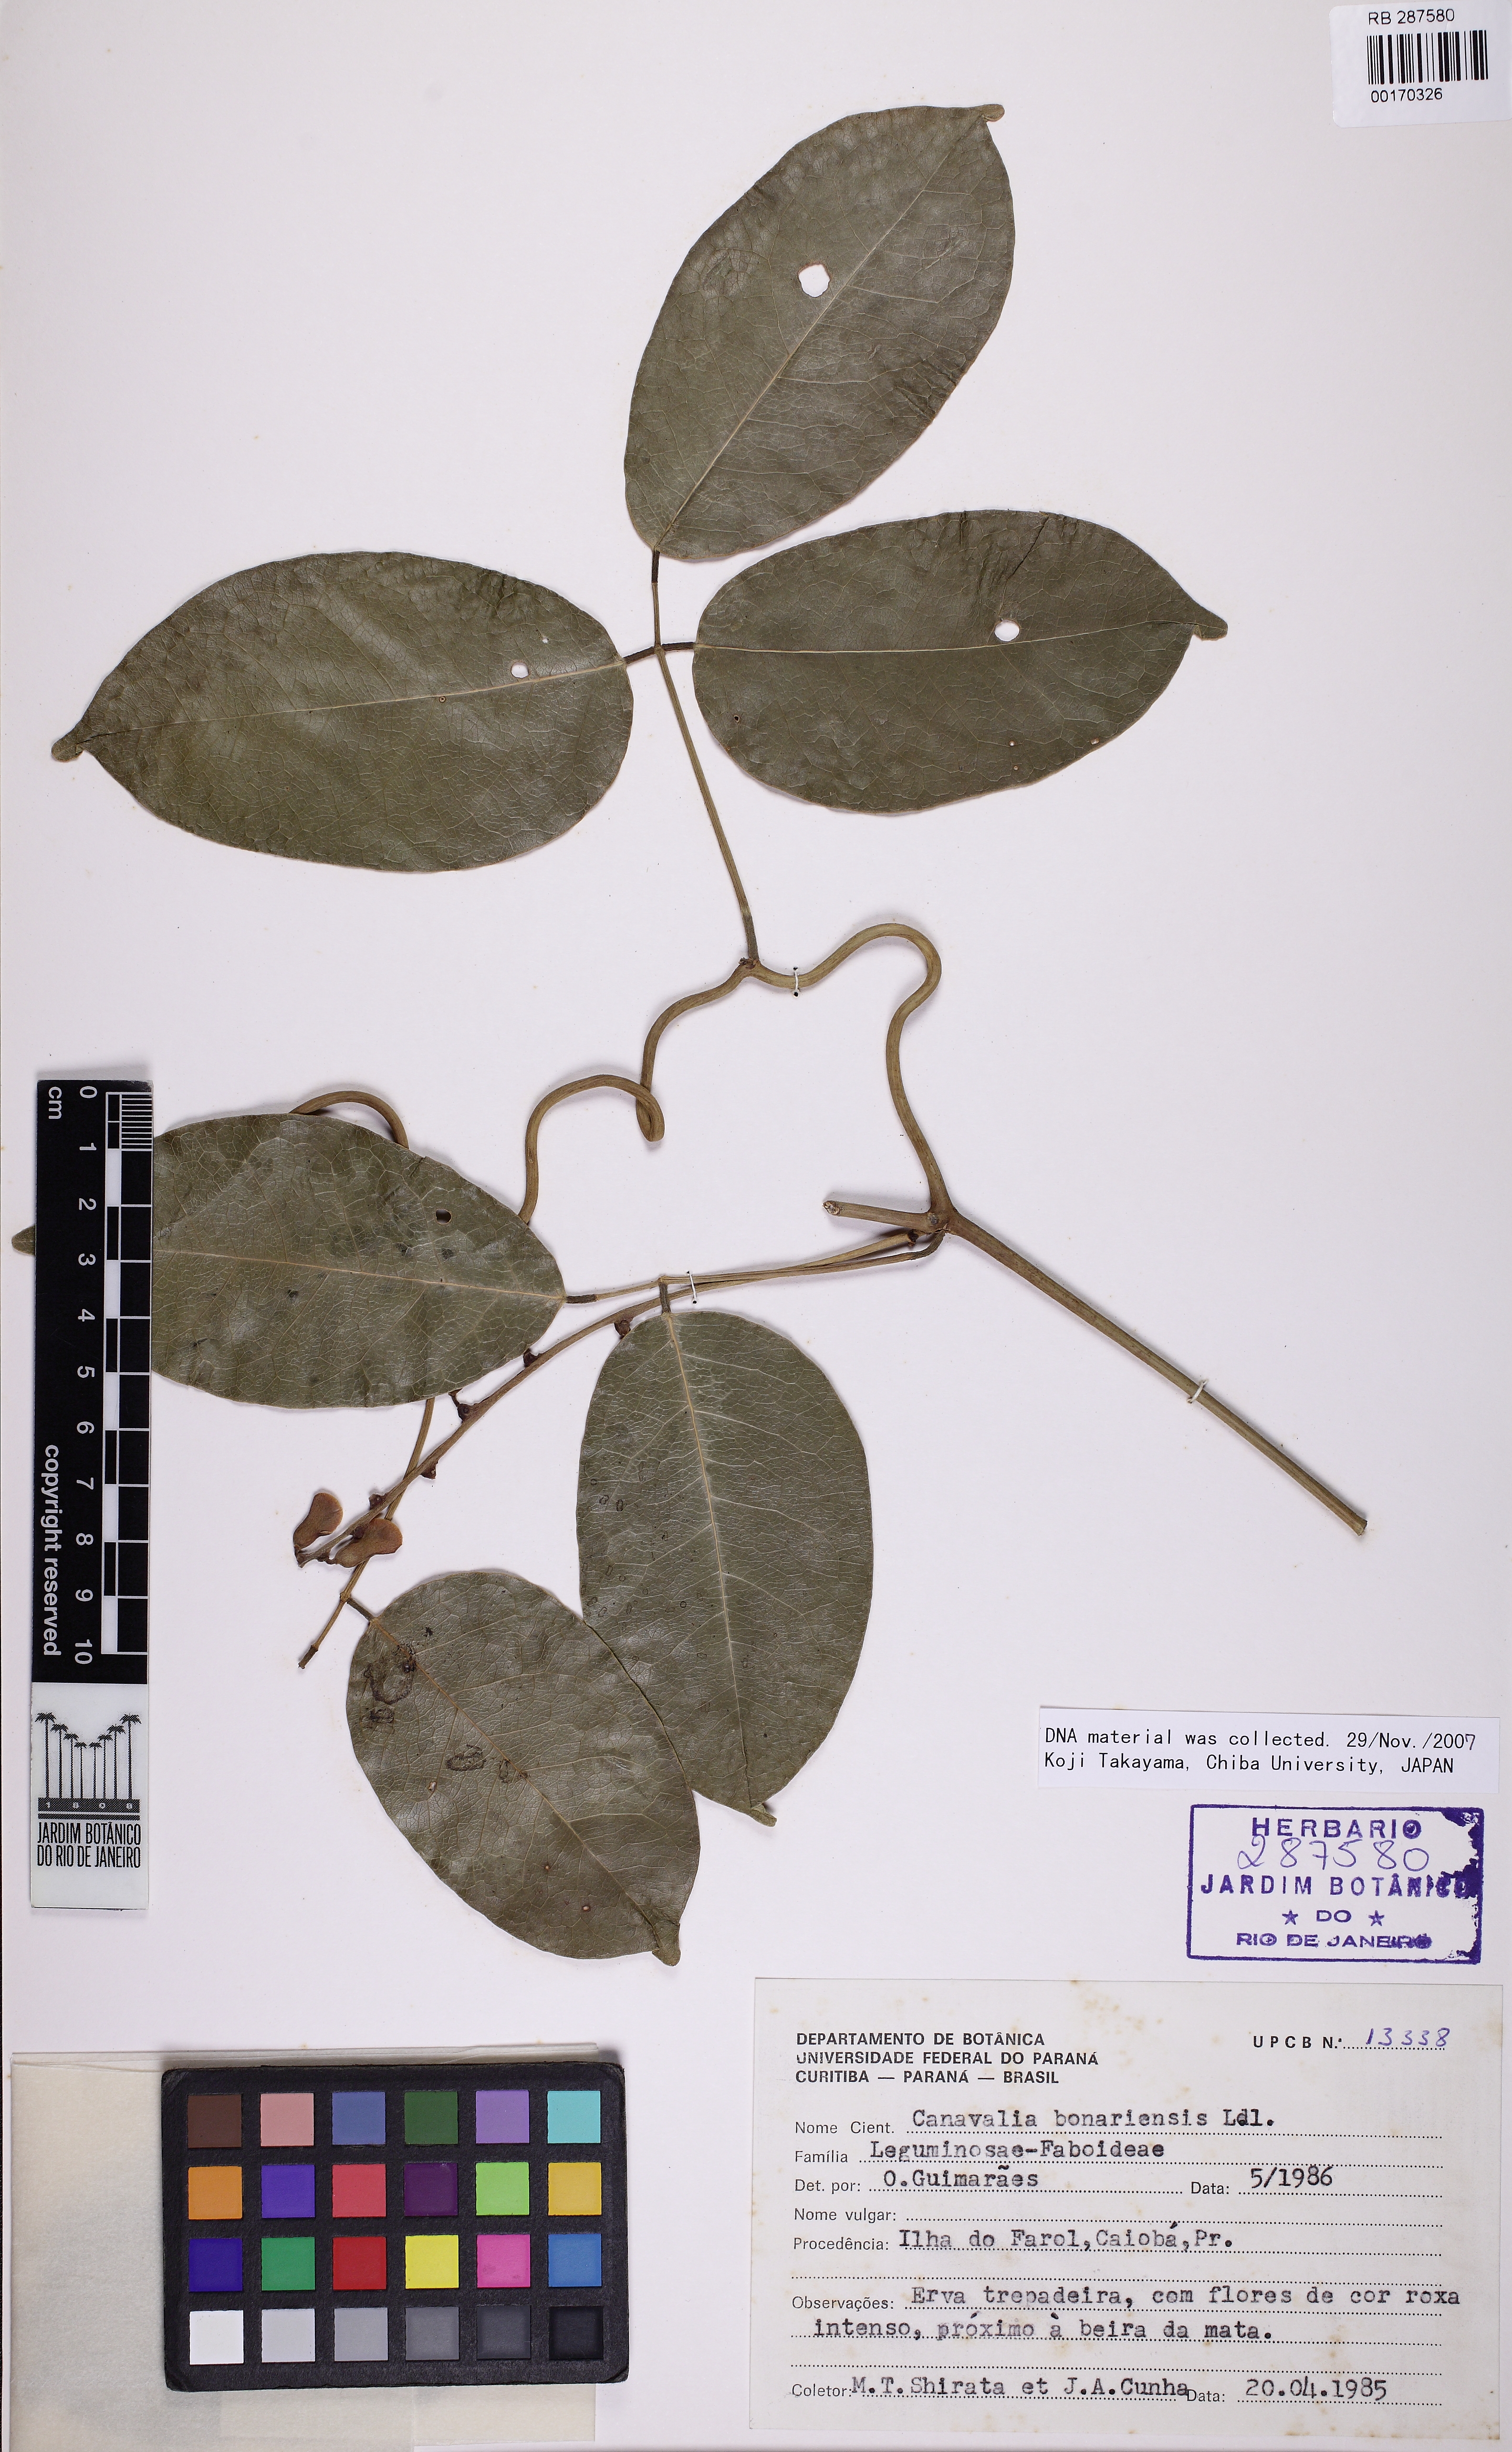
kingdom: Plantae
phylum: Tracheophyta
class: Magnoliopsida
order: Fabales
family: Fabaceae
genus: Canavalia
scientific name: Canavalia bonariensis
